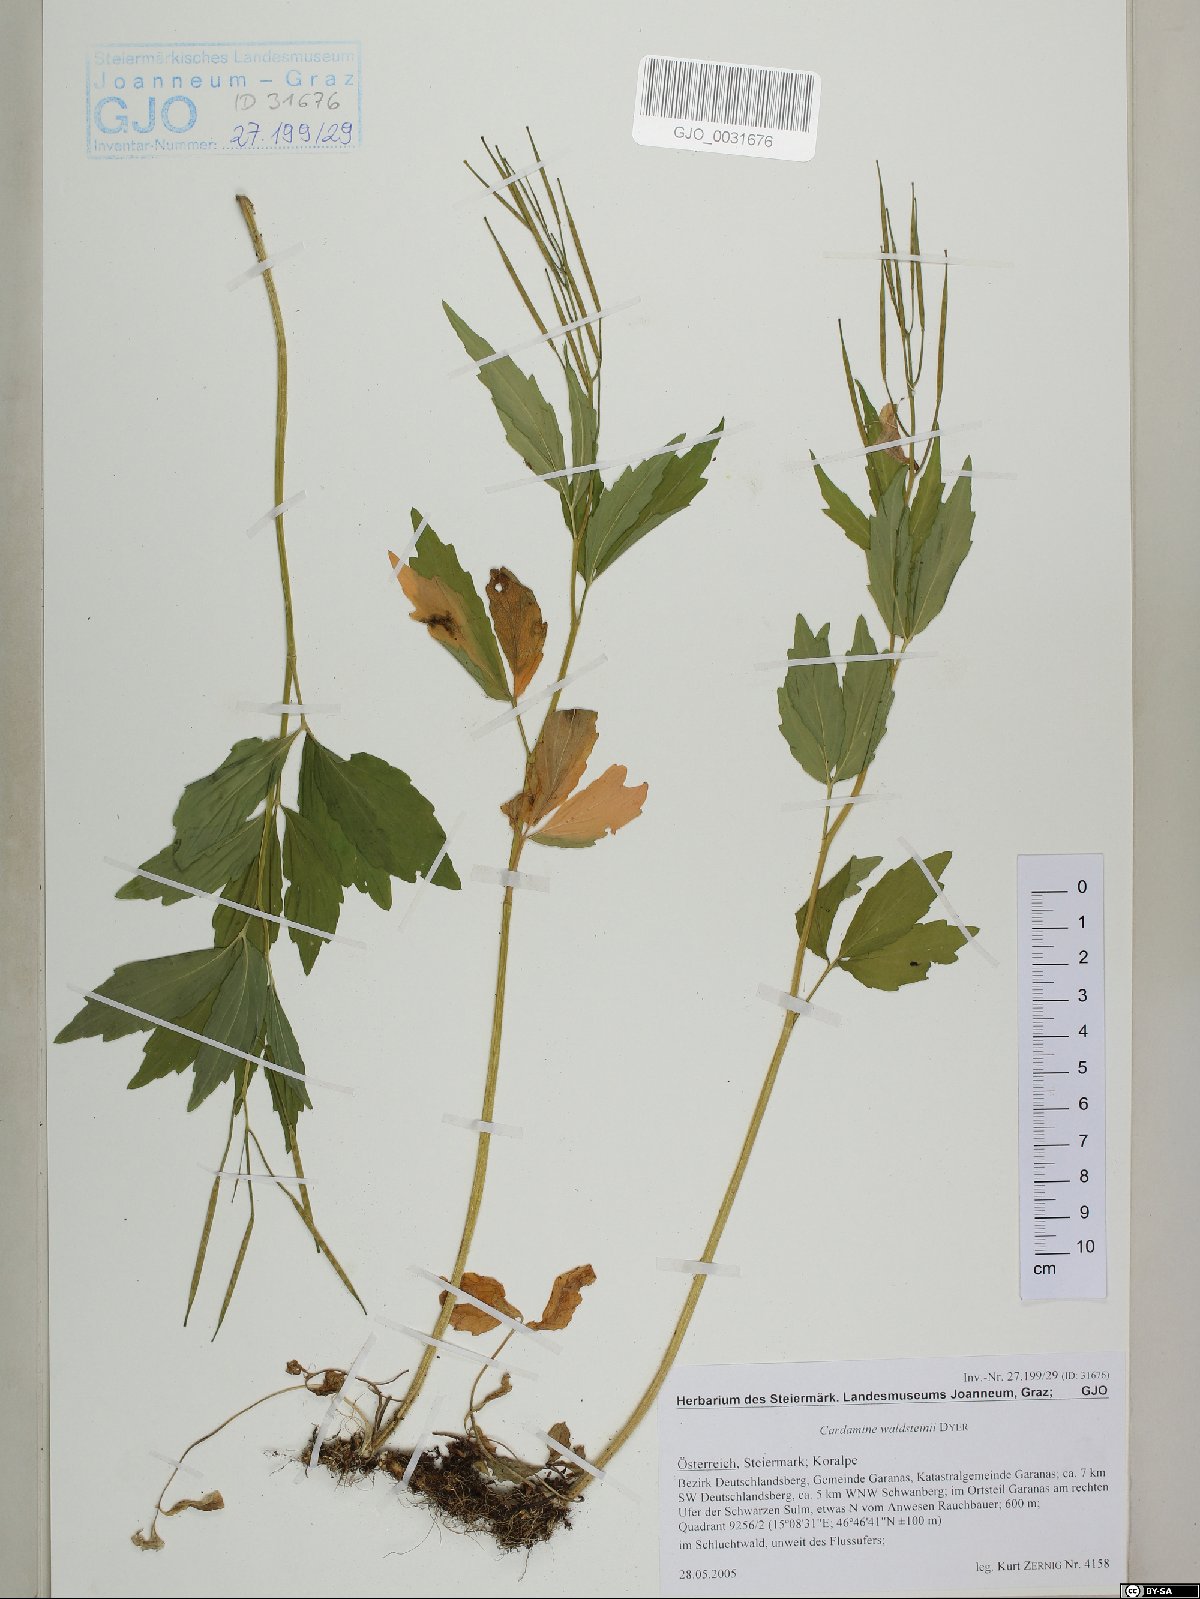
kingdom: Plantae
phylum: Tracheophyta
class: Magnoliopsida
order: Brassicales
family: Brassicaceae
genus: Cardamine
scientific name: Cardamine waldsteinii
